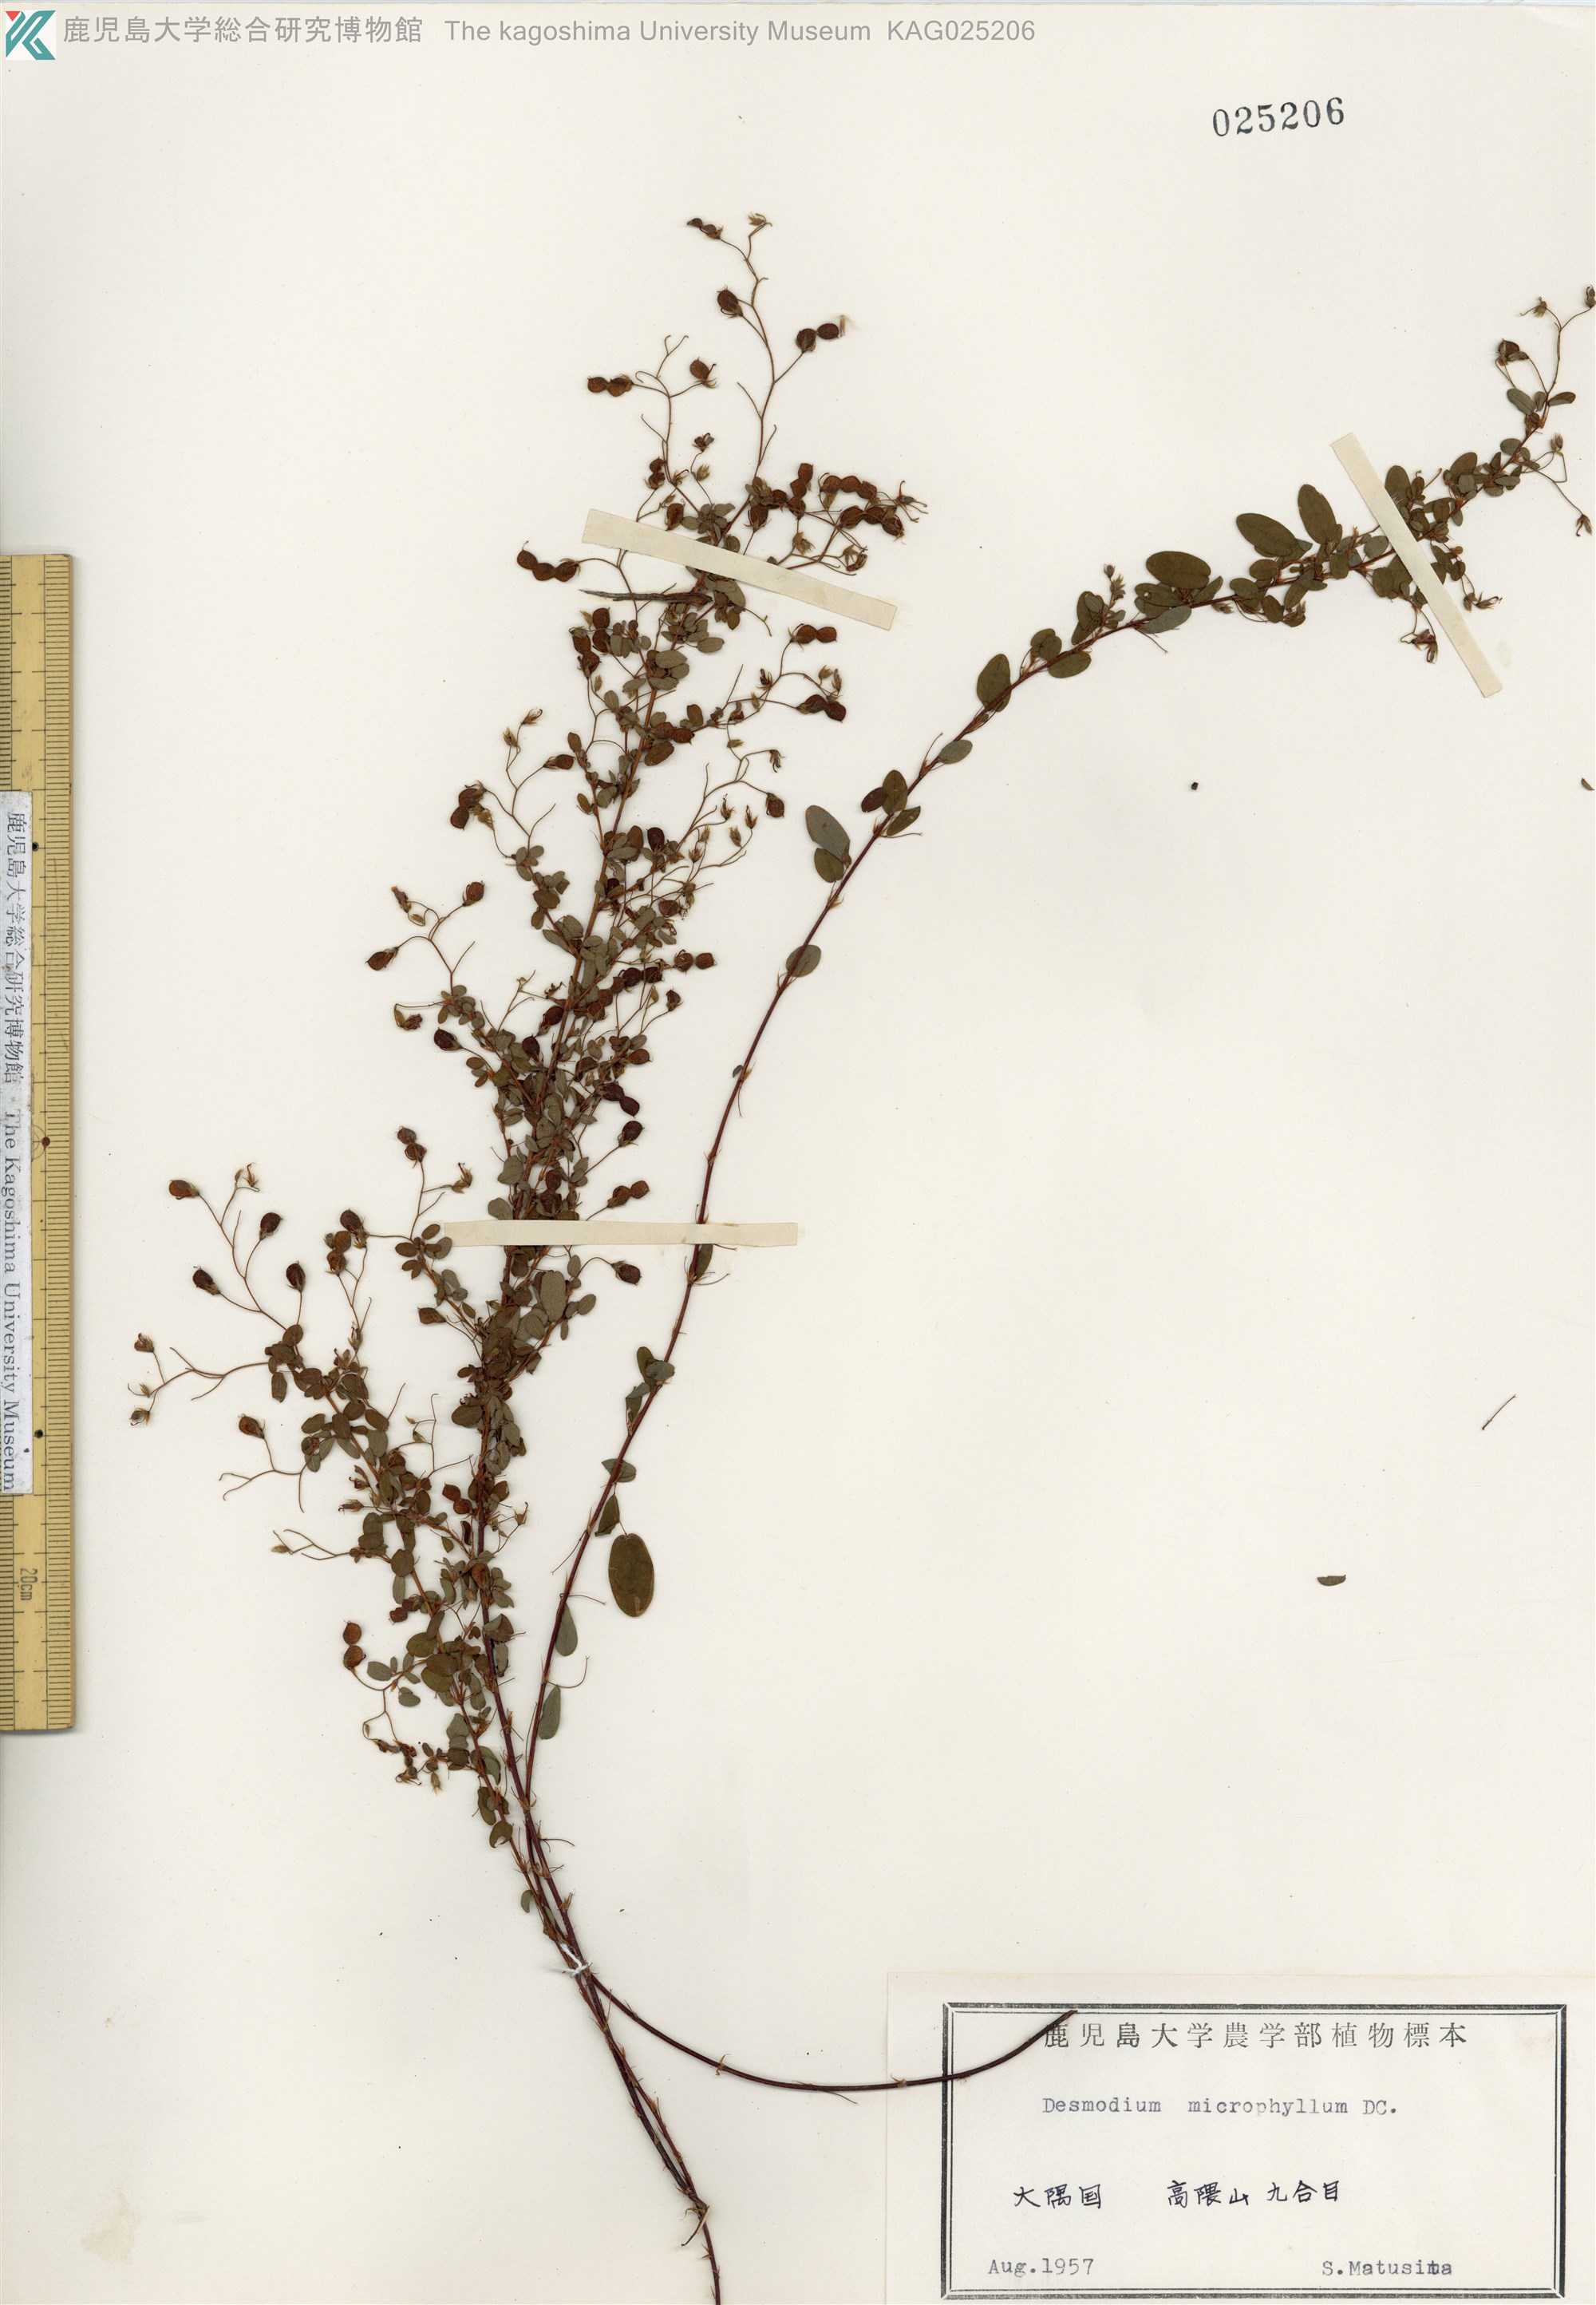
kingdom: Plantae
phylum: Tracheophyta
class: Magnoliopsida
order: Fabales
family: Fabaceae
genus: Leptodesmia
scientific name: Leptodesmia microphylla
